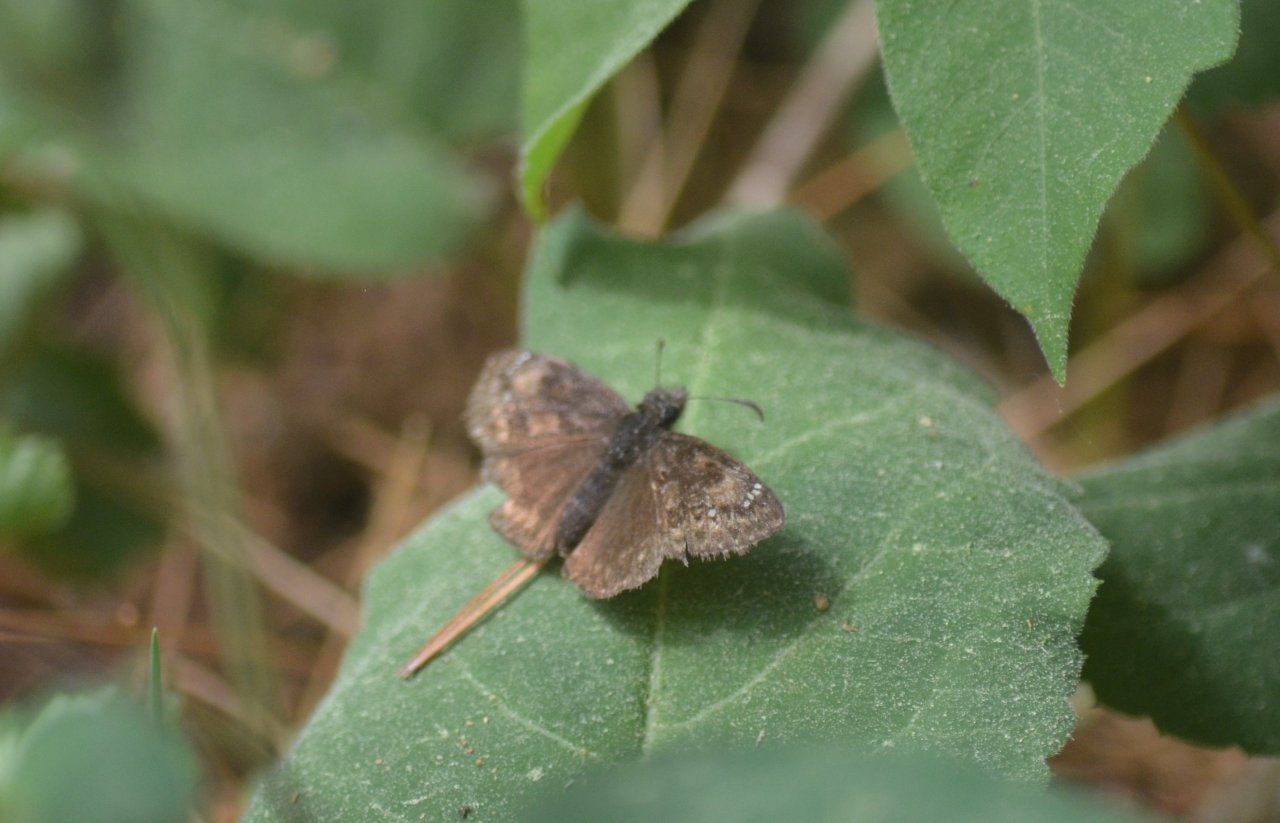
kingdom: Animalia
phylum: Arthropoda
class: Insecta
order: Lepidoptera
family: Hesperiidae
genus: Erynnis
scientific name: Erynnis
